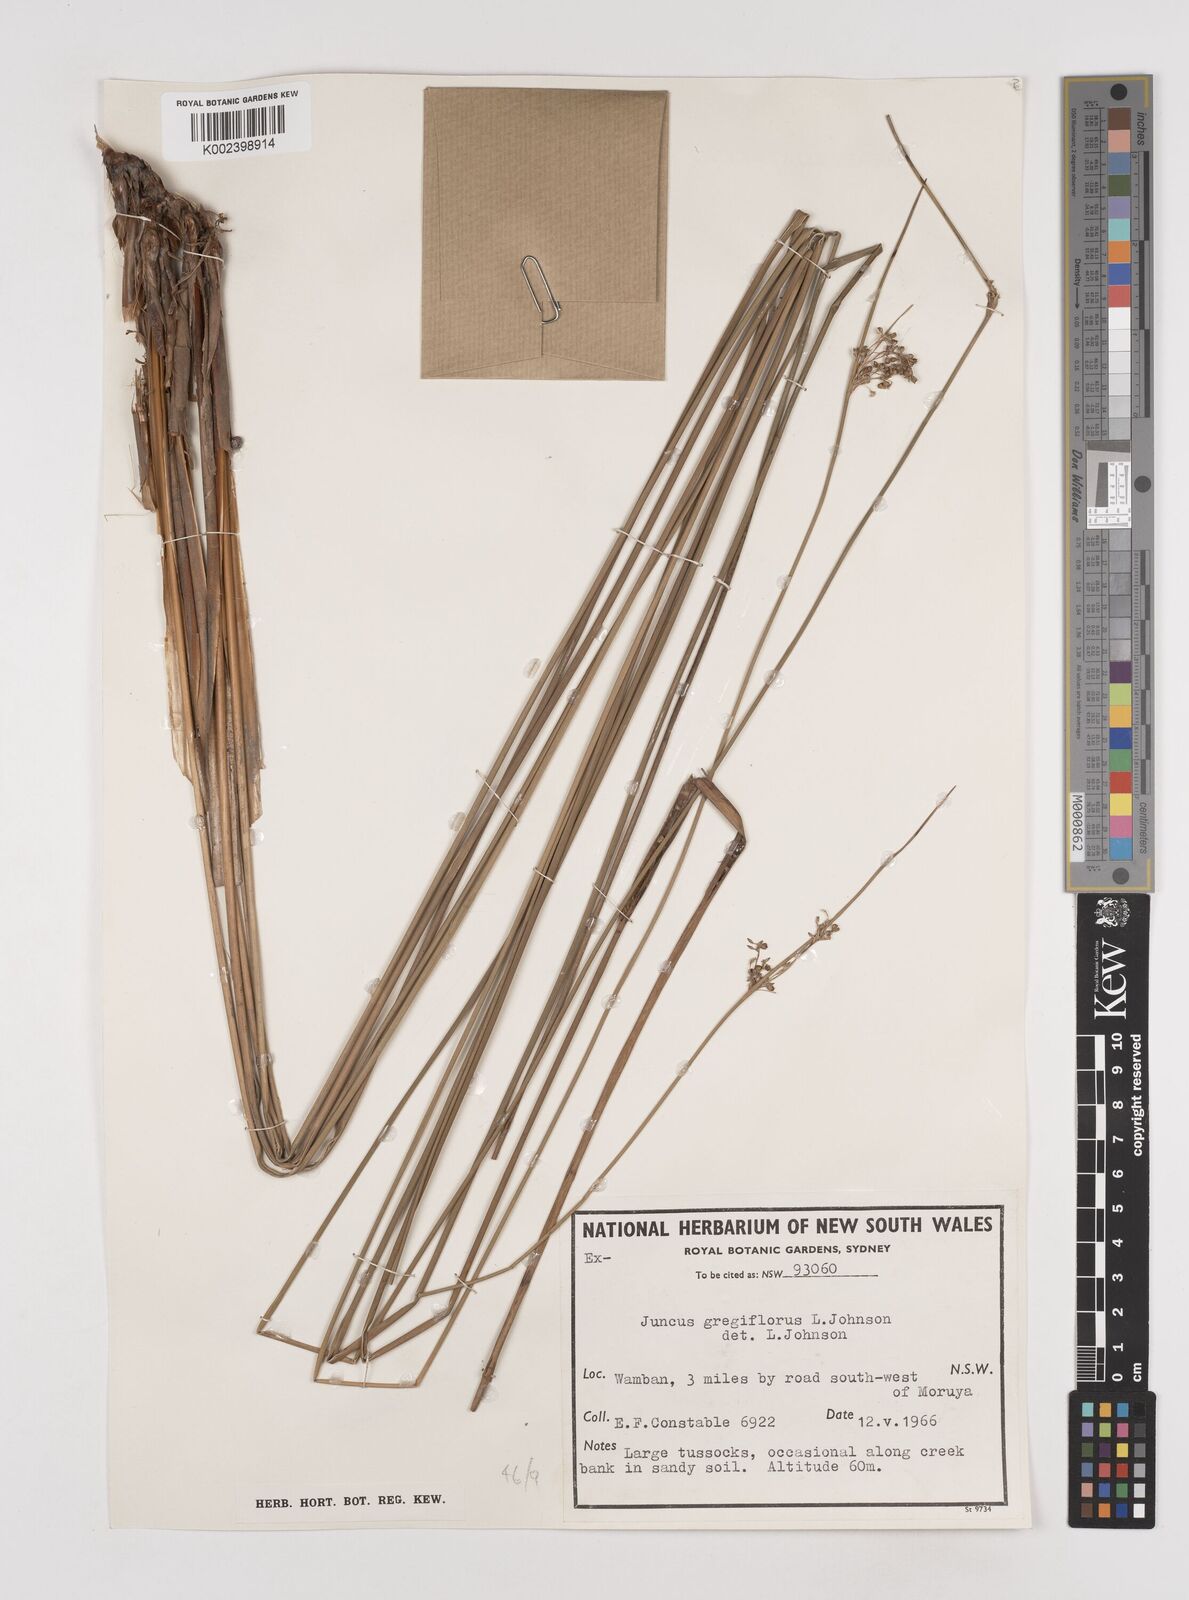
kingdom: Plantae
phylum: Tracheophyta
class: Liliopsida
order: Poales
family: Juncaceae
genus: Juncus
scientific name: Juncus gregiflorus
